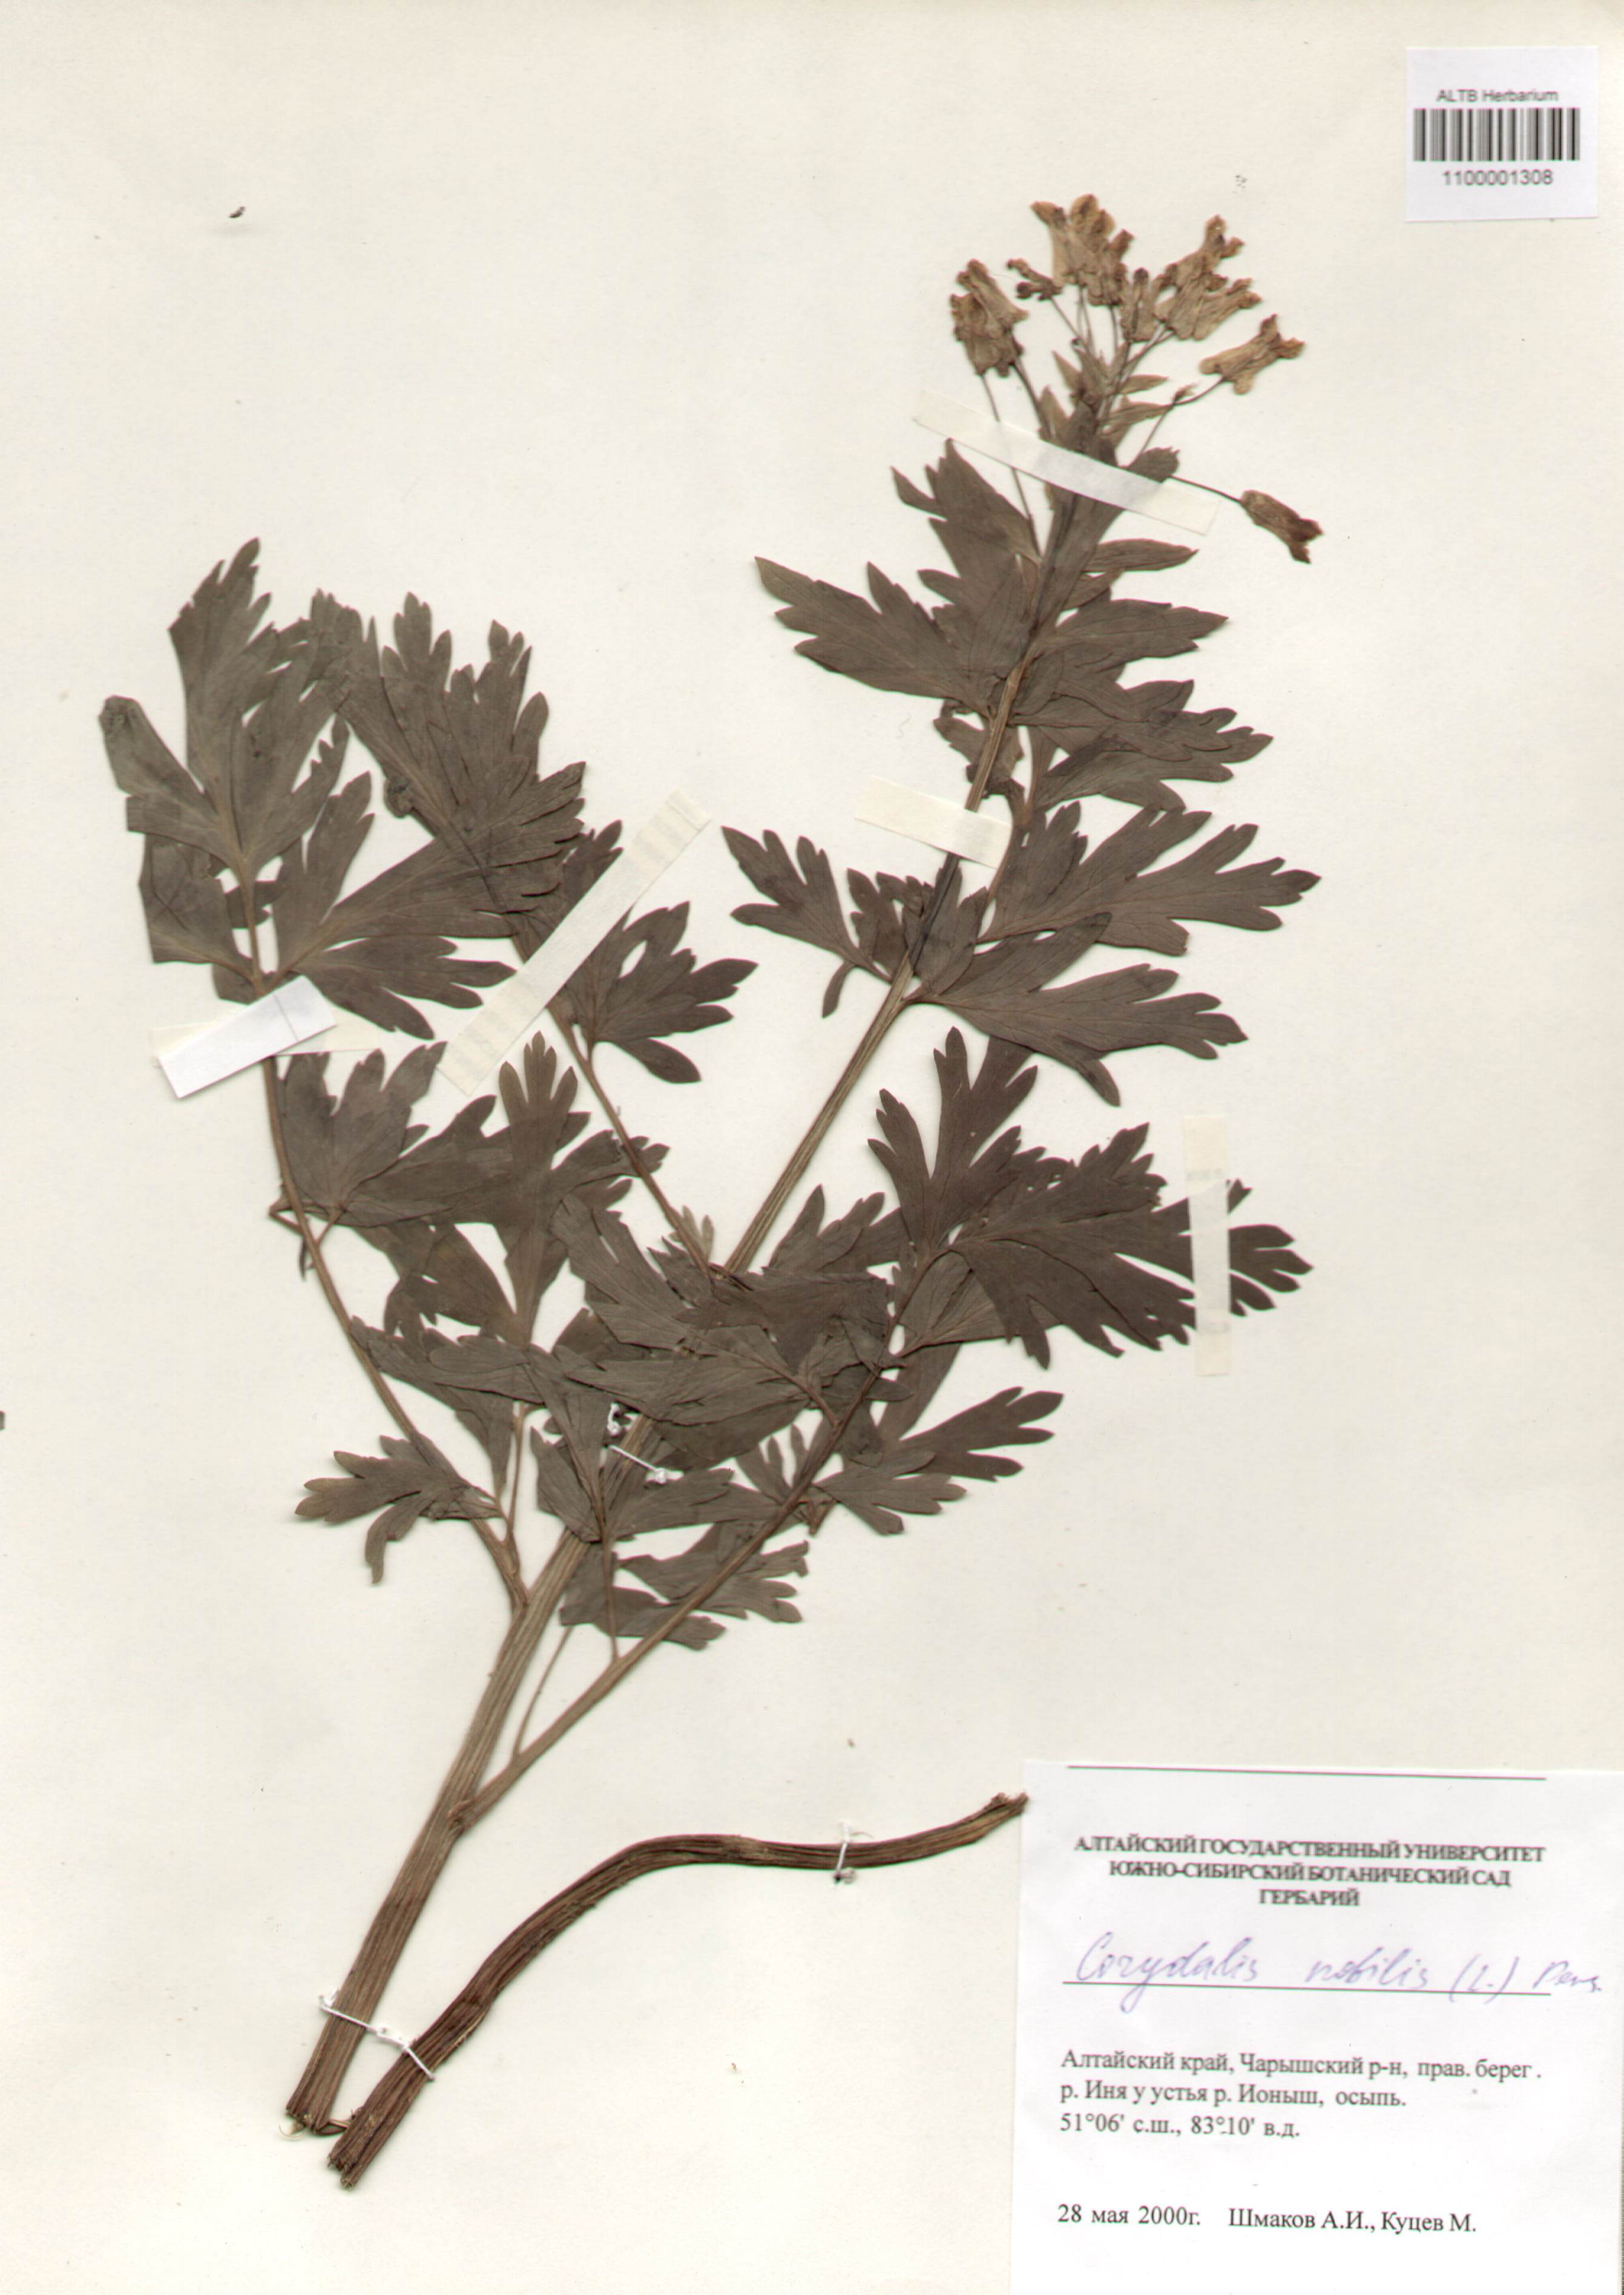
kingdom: Plantae
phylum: Tracheophyta
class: Magnoliopsida
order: Ranunculales
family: Papaveraceae
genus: Corydalis
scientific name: Corydalis nobilis
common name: Siberian corydalis
